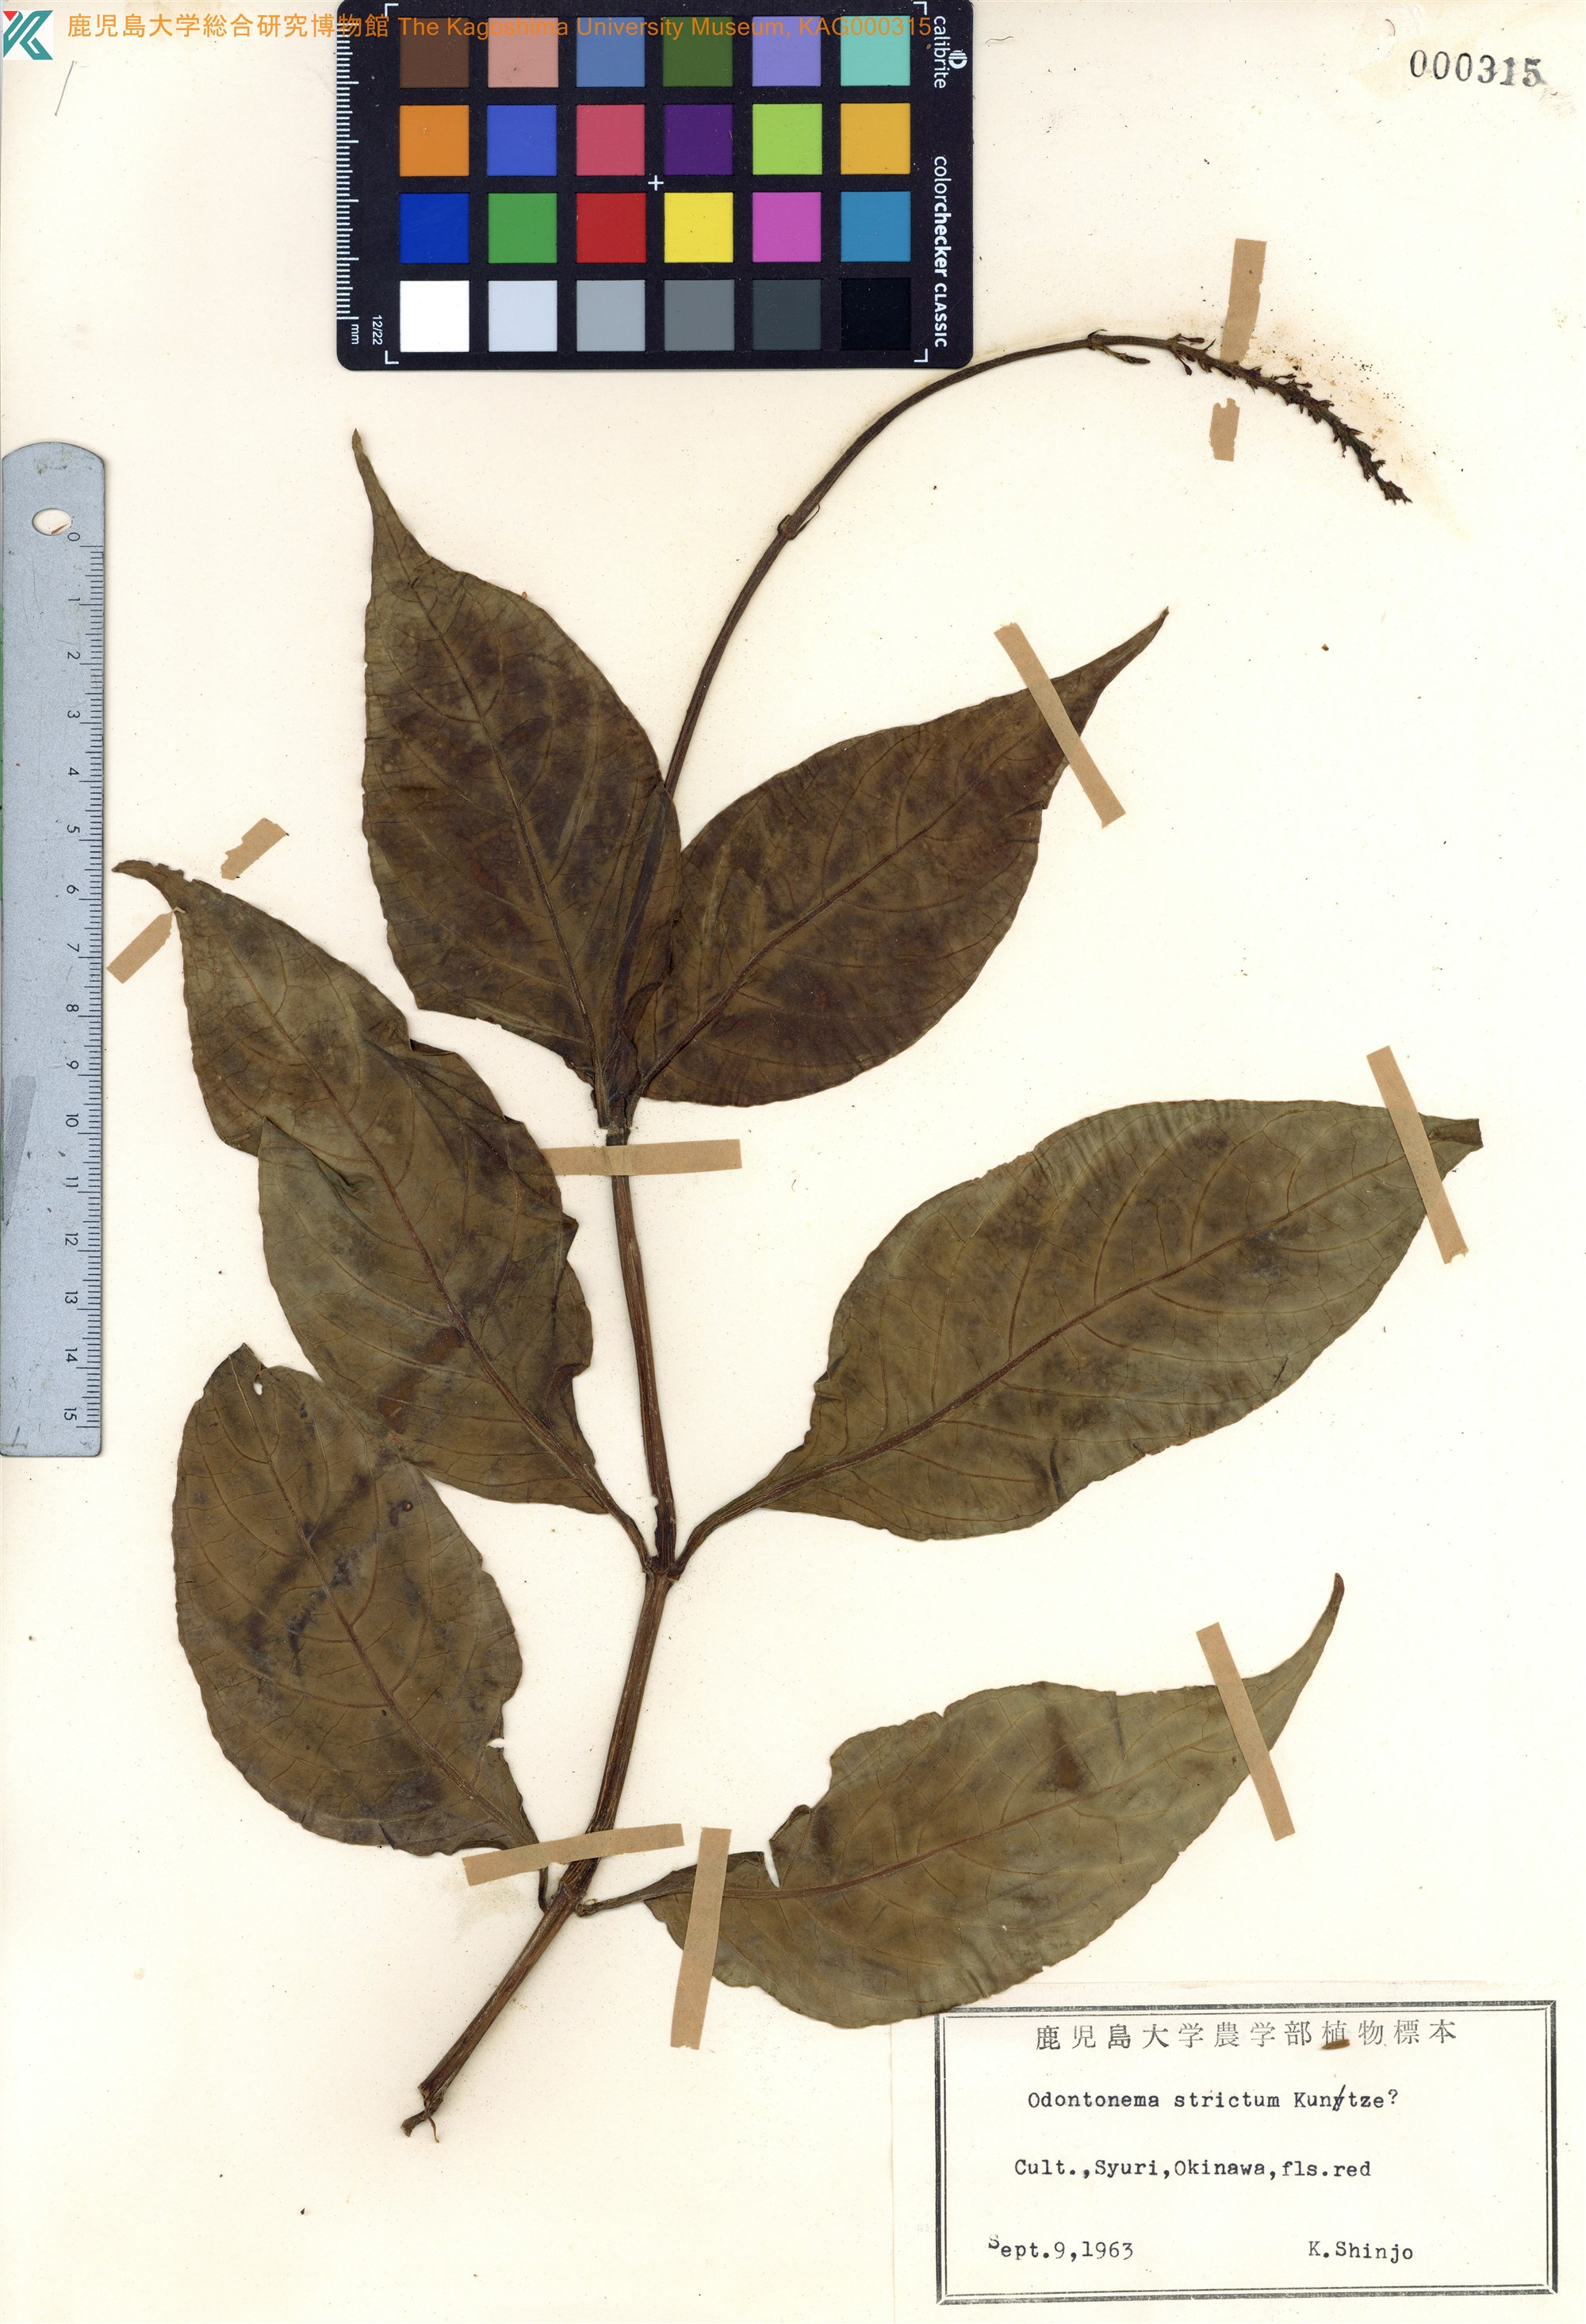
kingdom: Plantae
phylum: Tracheophyta
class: Magnoliopsida
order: Lamiales
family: Acanthaceae
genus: Odontonema
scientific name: Odontonema tubaeforme
